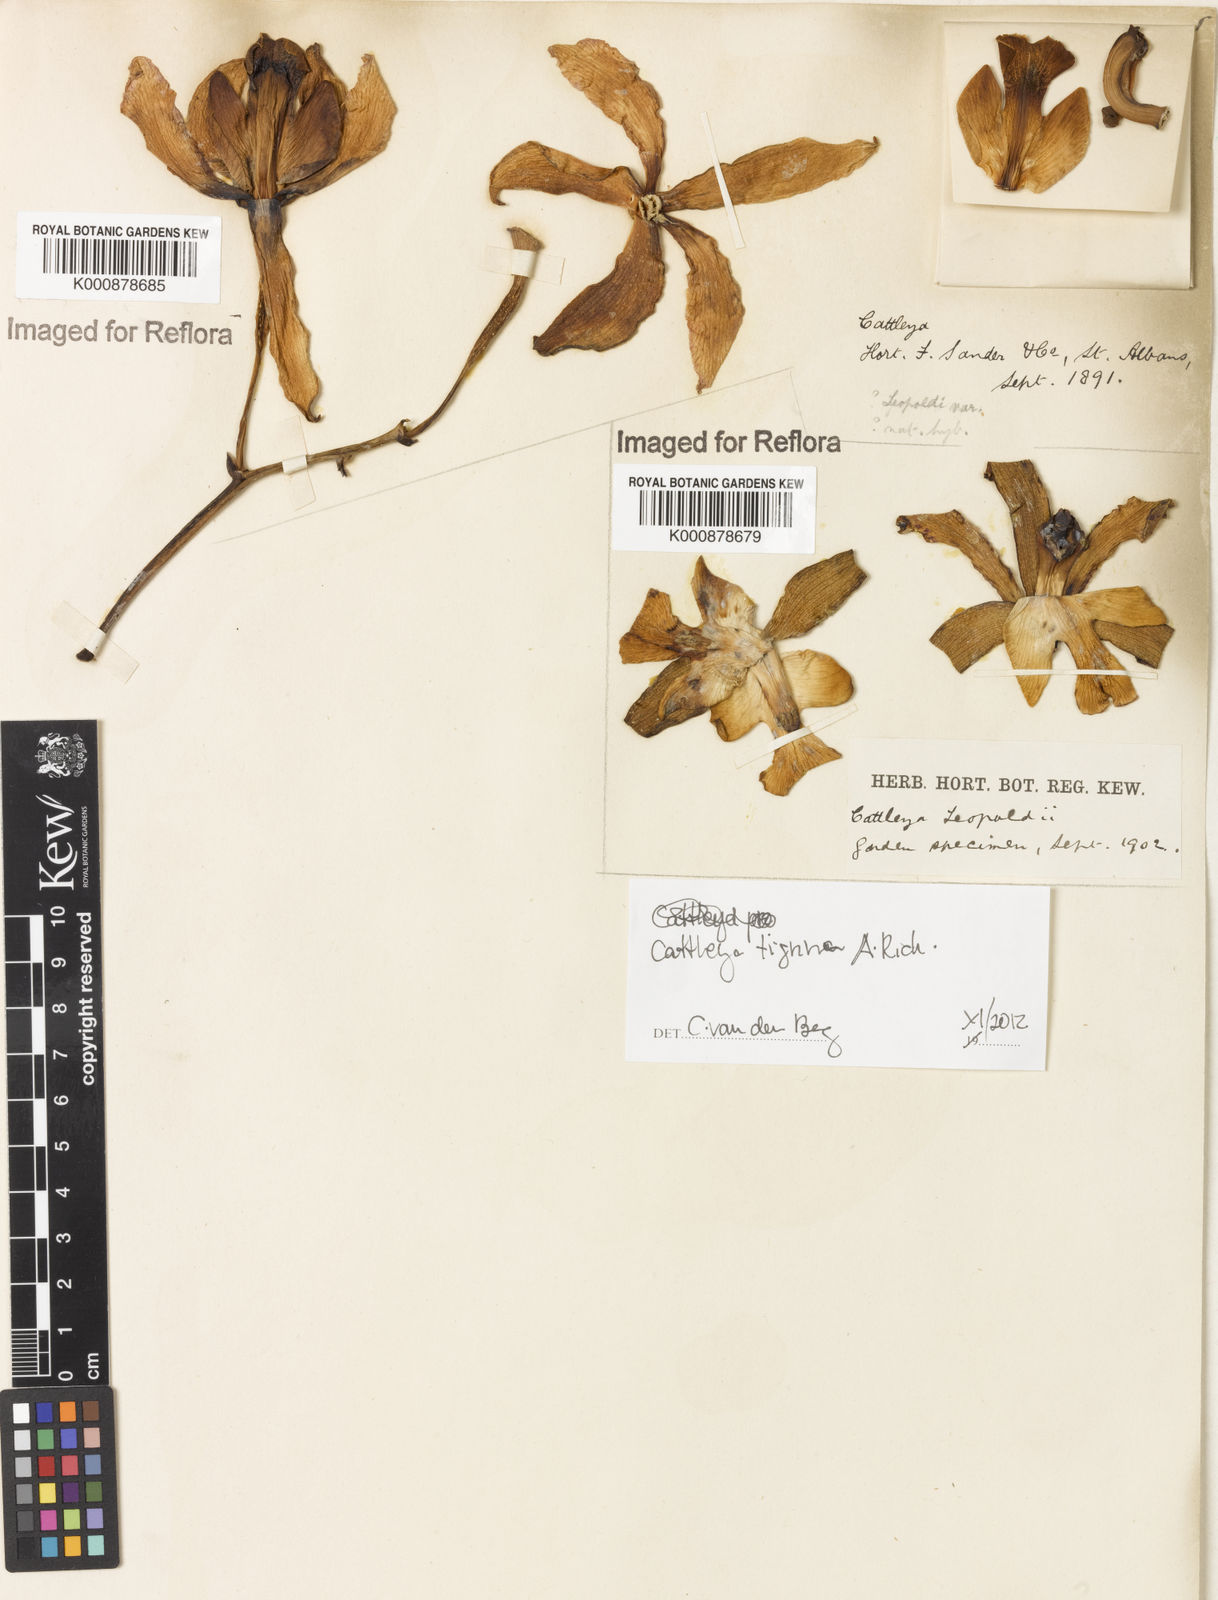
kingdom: Plantae
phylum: Tracheophyta
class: Liliopsida
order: Asparagales
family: Orchidaceae
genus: Cattleya
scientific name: Cattleya tigrina
